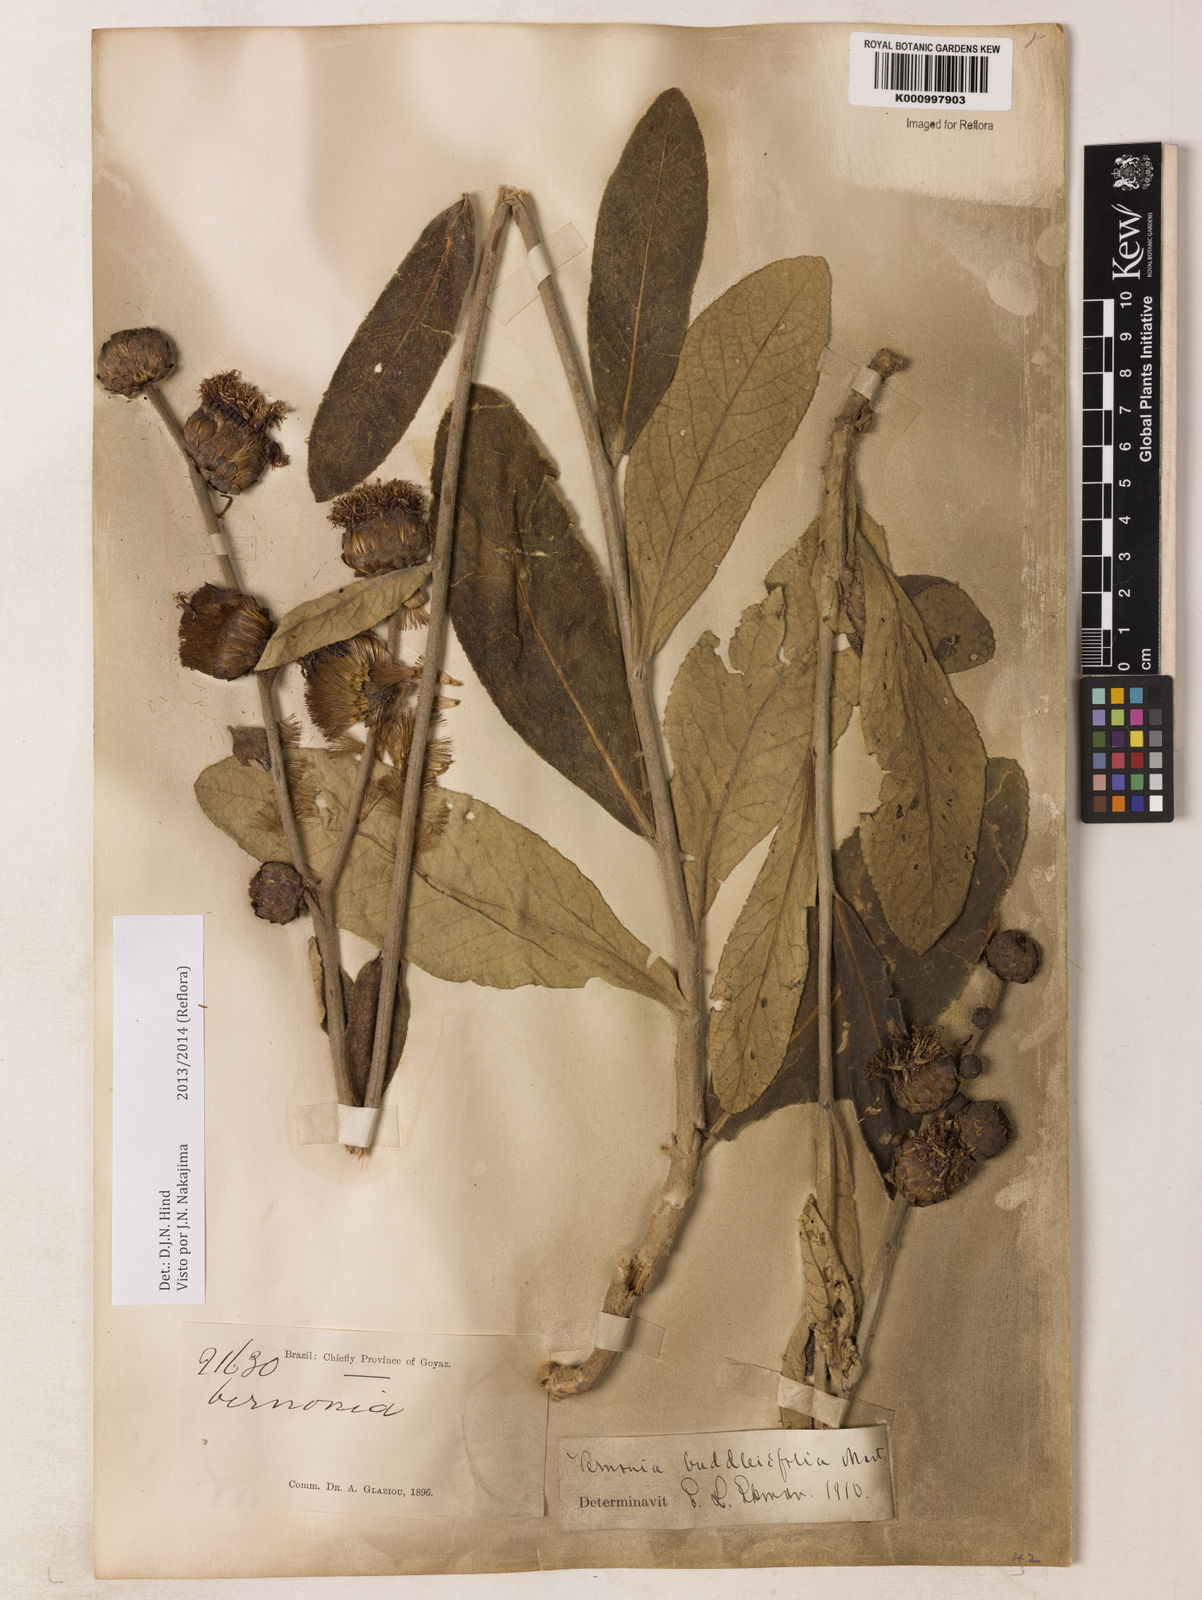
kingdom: Plantae
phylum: Tracheophyta
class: Magnoliopsida
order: Asterales
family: Asteraceae
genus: Lessingianthus
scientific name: Lessingianthus buddlejifolius
